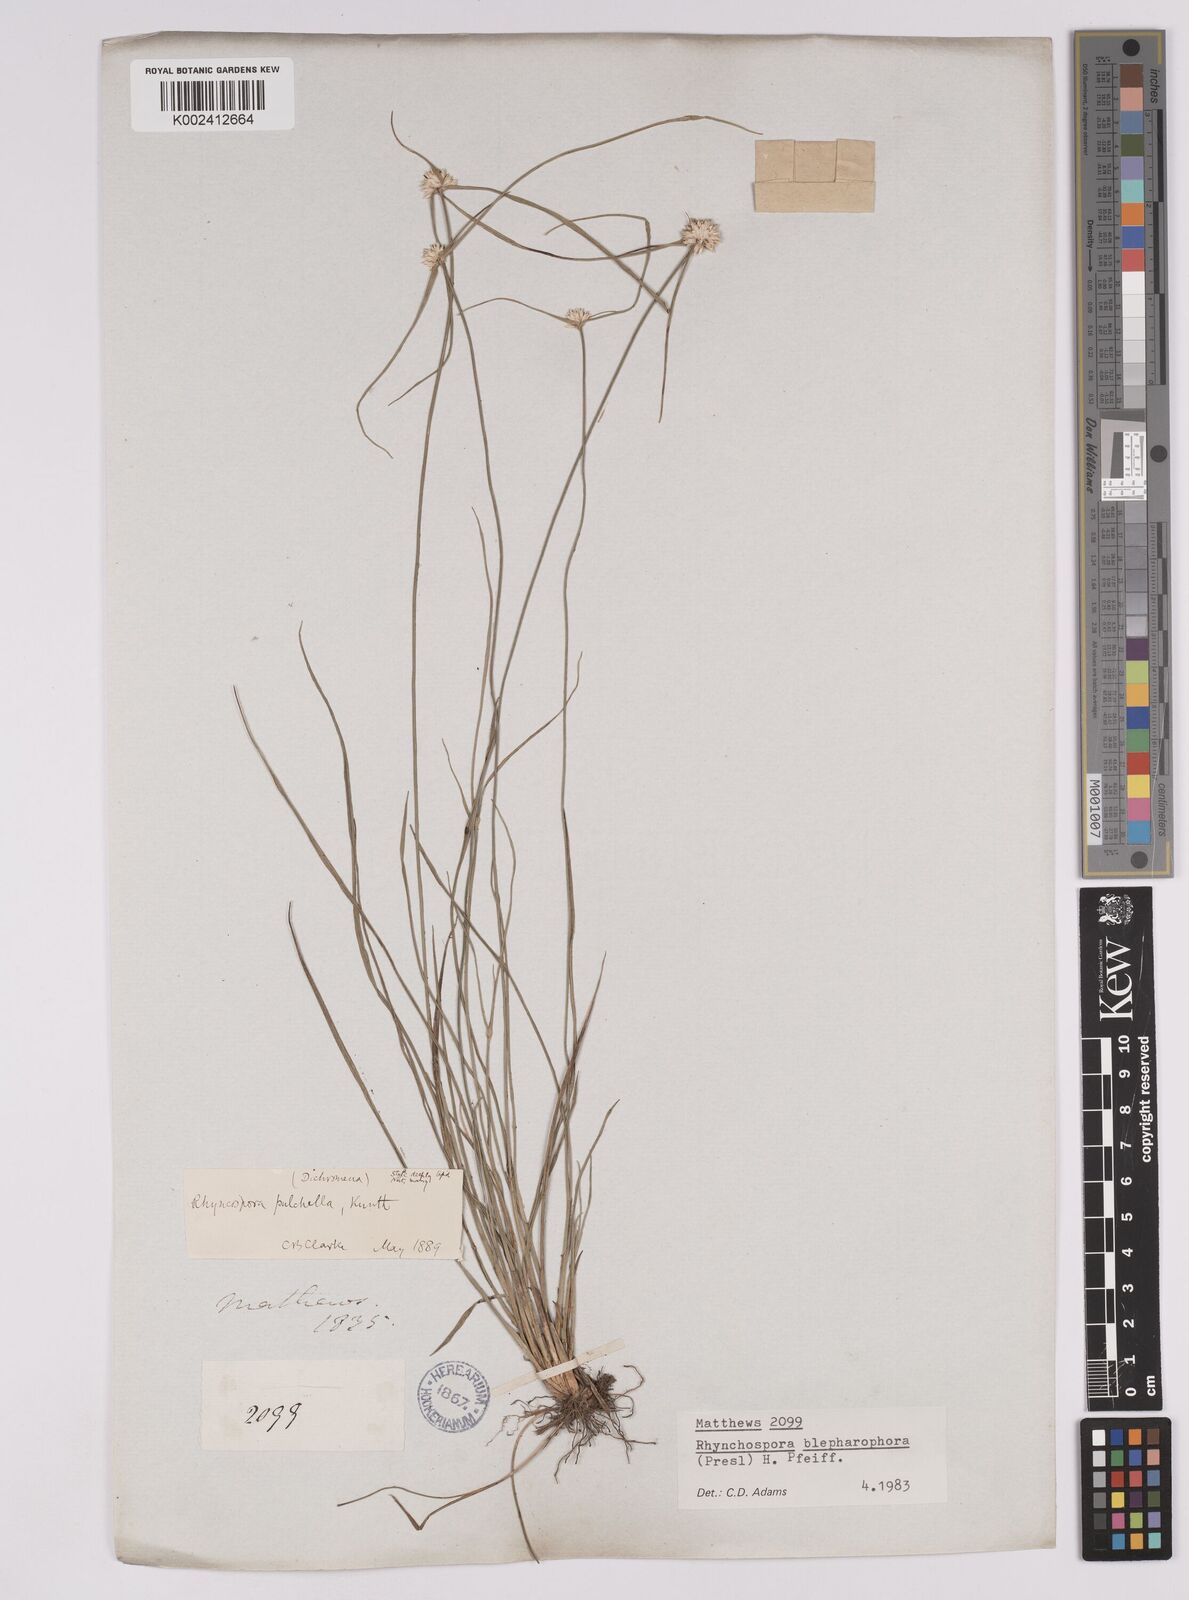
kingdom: Plantae
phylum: Tracheophyta
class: Liliopsida
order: Poales
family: Cyperaceae
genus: Rhynchospora
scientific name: Rhynchospora blepharophora
